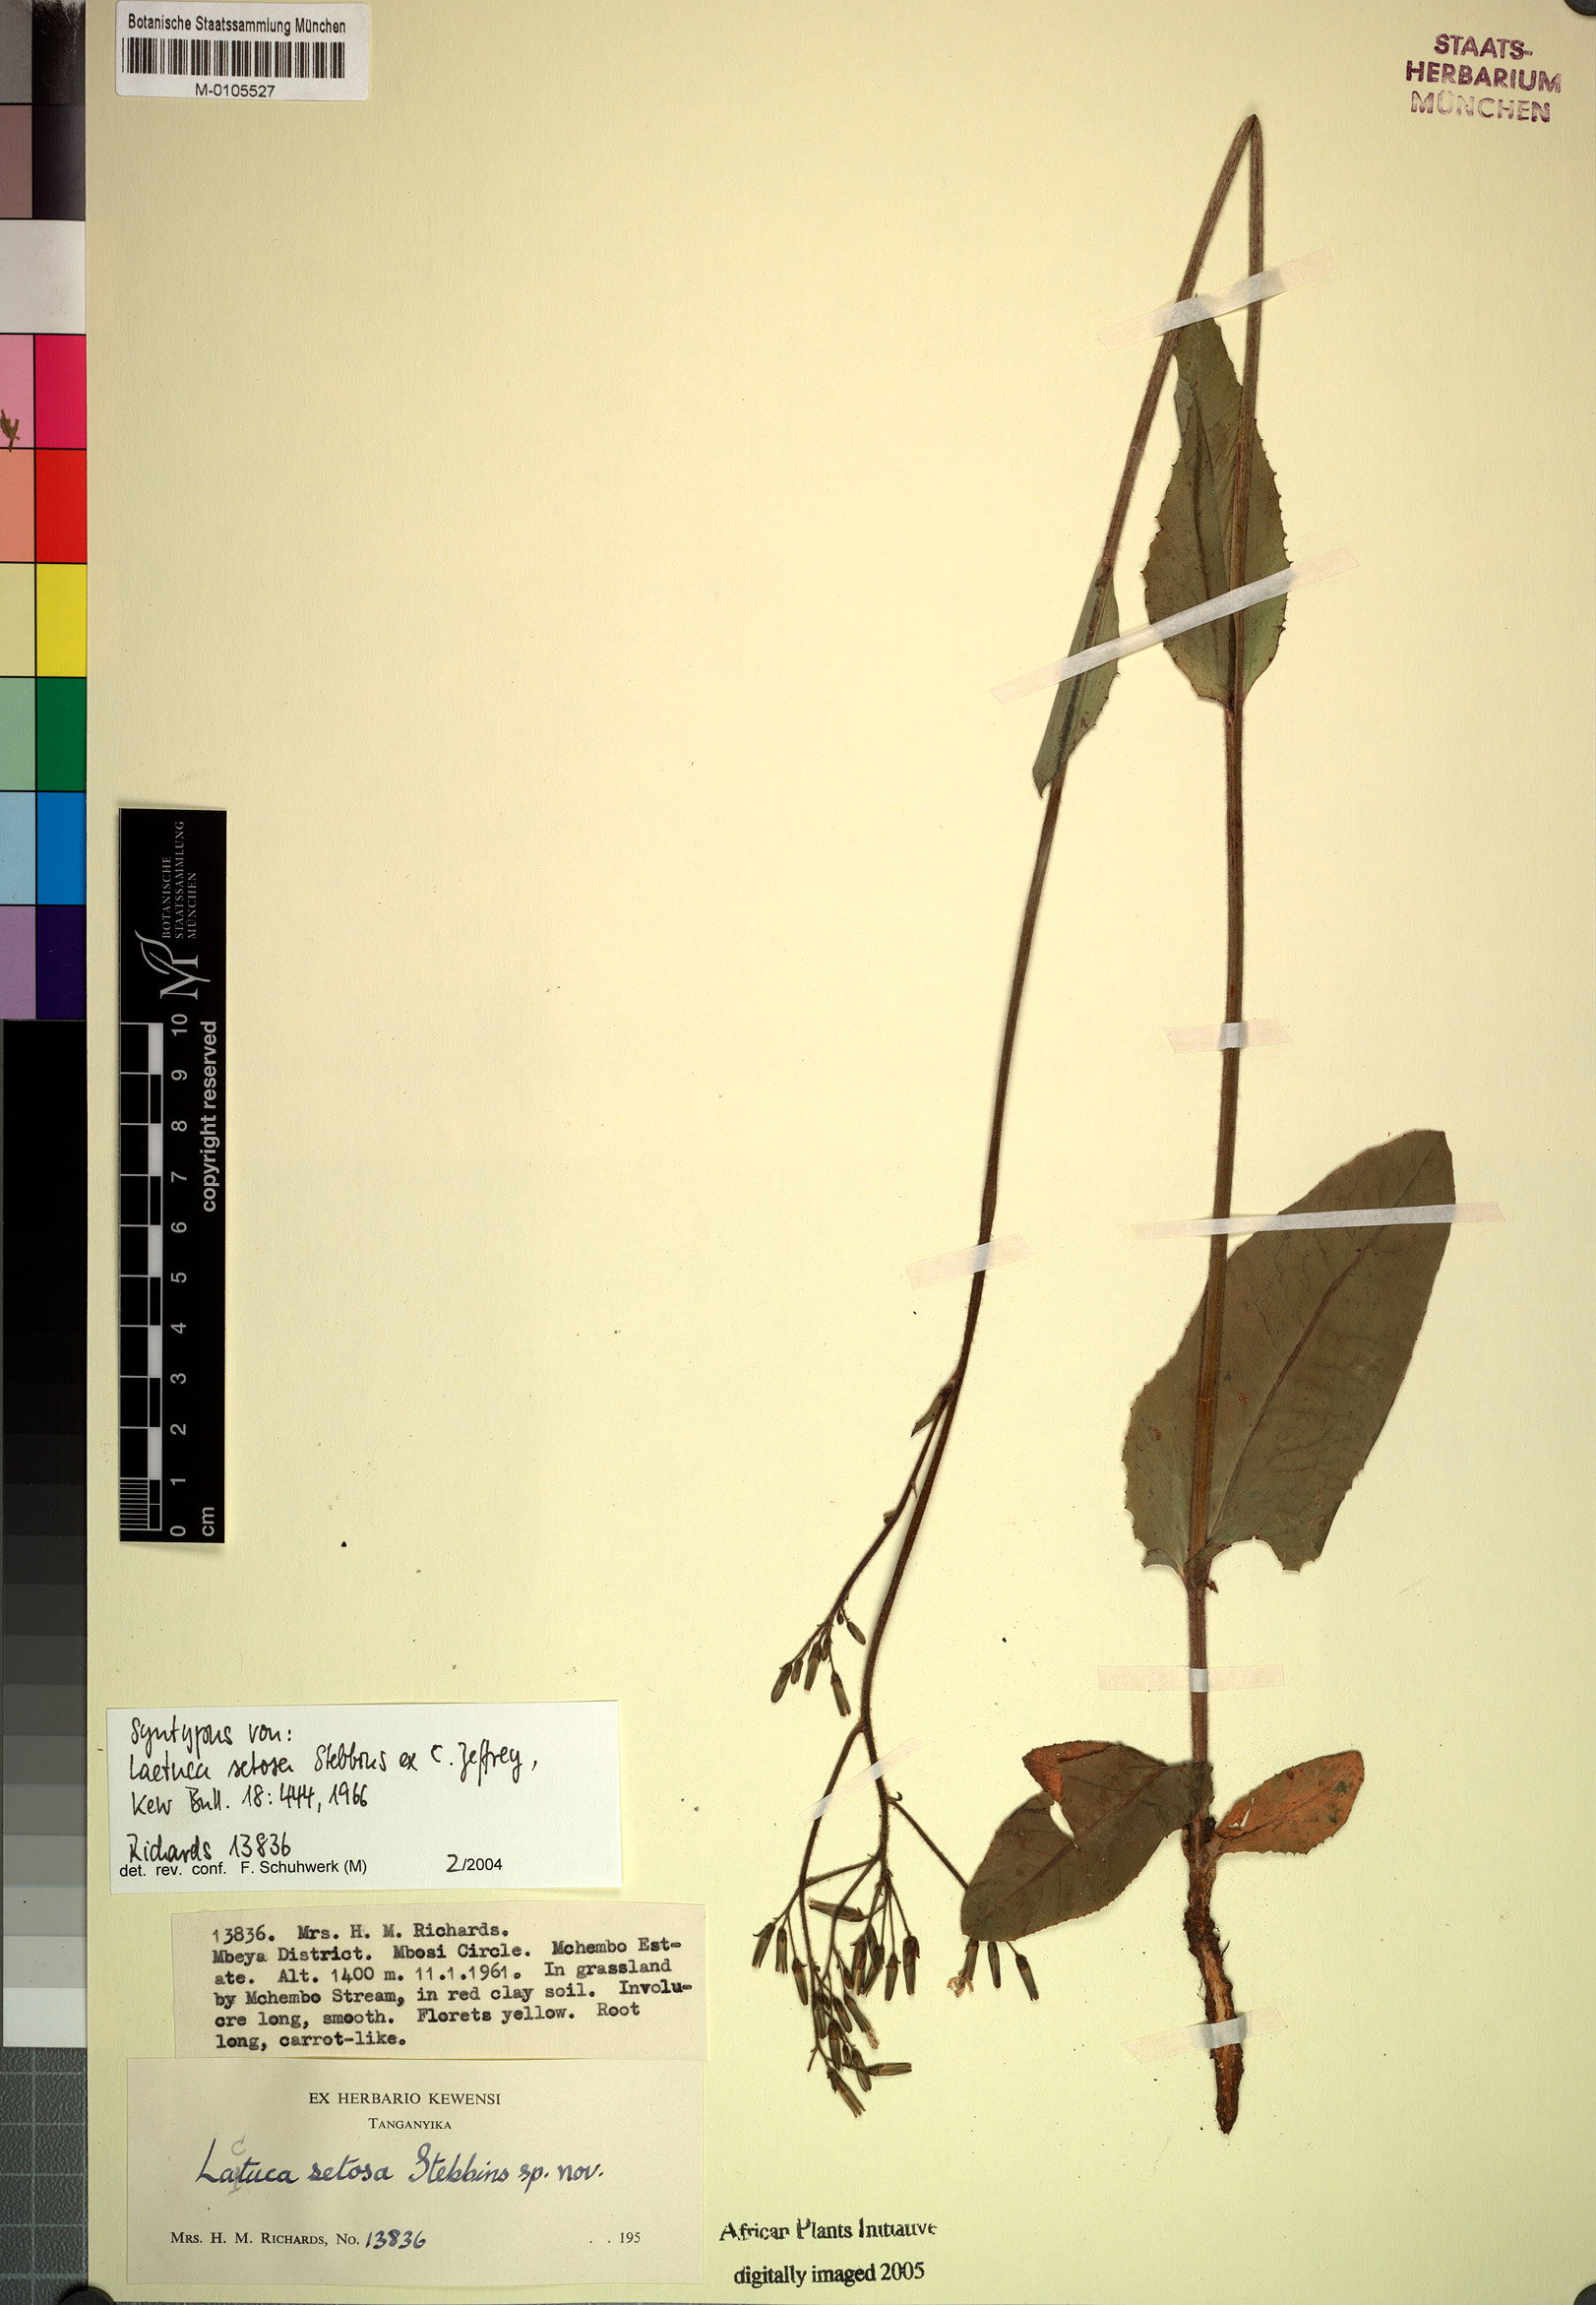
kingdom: Plantae
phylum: Tracheophyta
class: Magnoliopsida
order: Asterales
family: Asteraceae
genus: Lactuca
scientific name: Lactuca setosa
